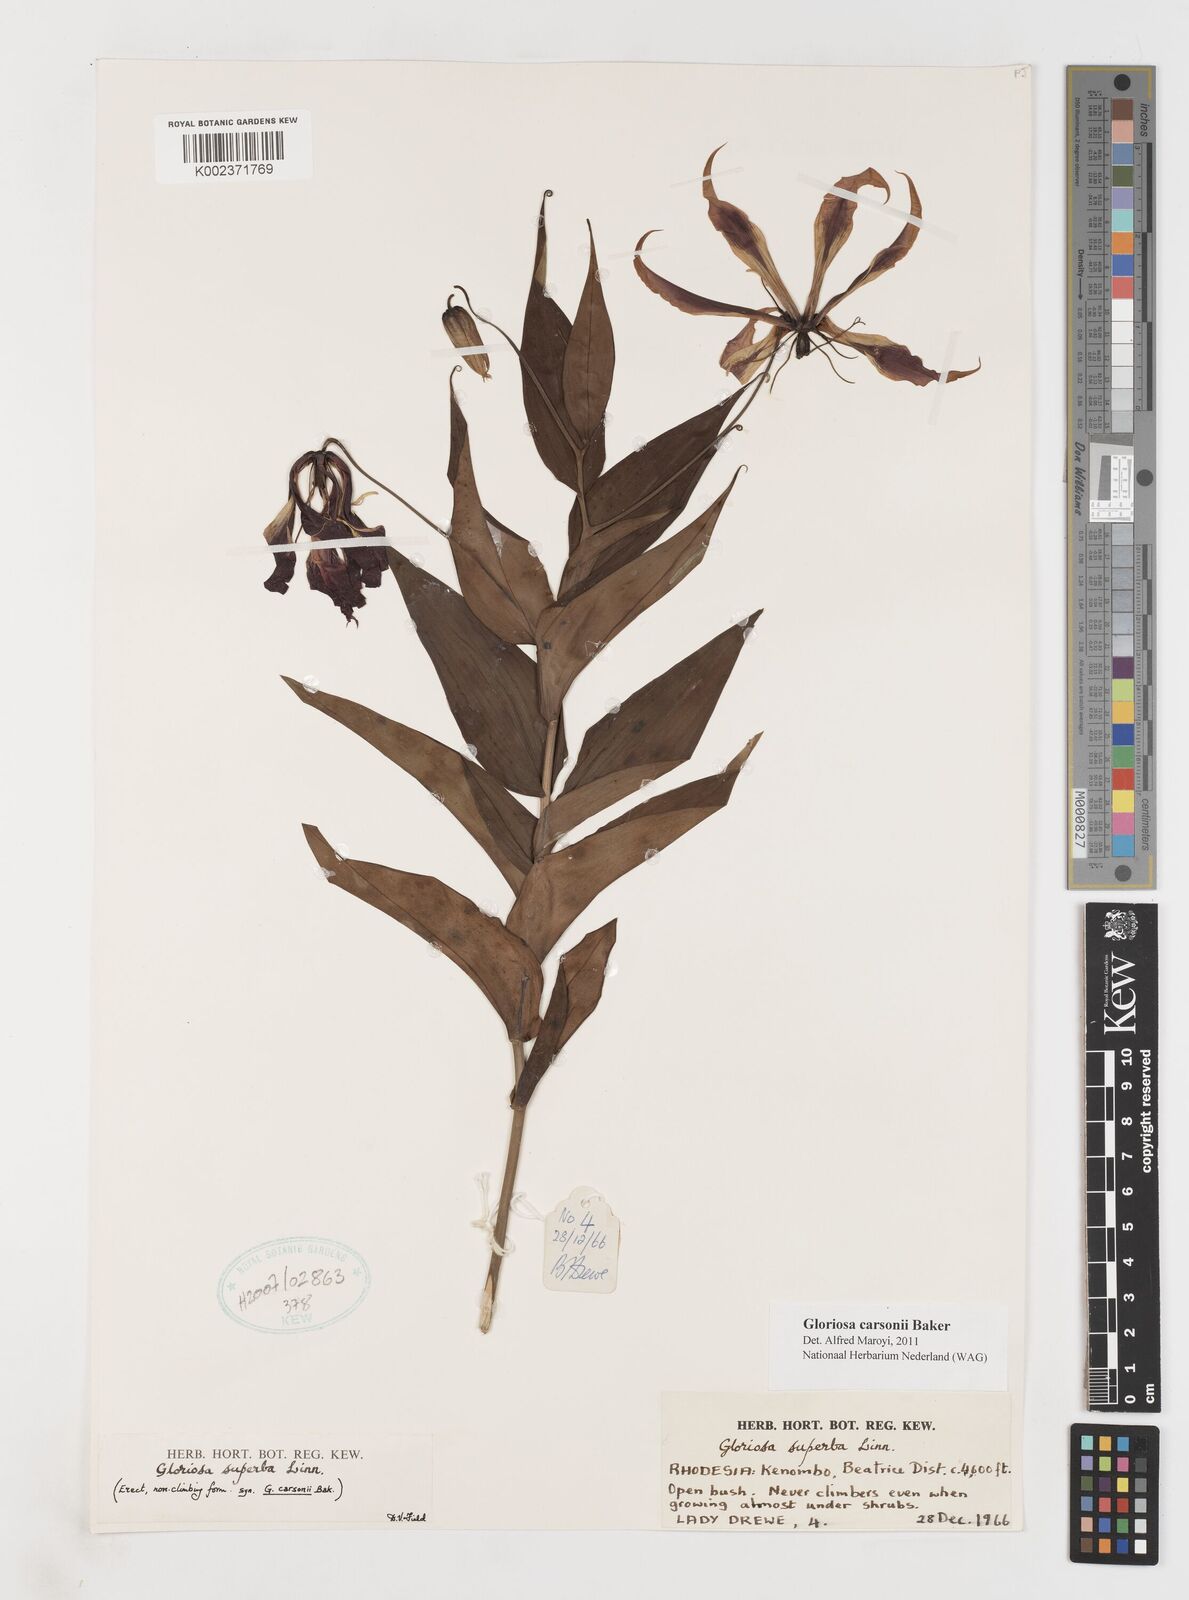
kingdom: Plantae
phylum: Tracheophyta
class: Liliopsida
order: Liliales
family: Colchicaceae
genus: Gloriosa
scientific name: Gloriosa carsonii
